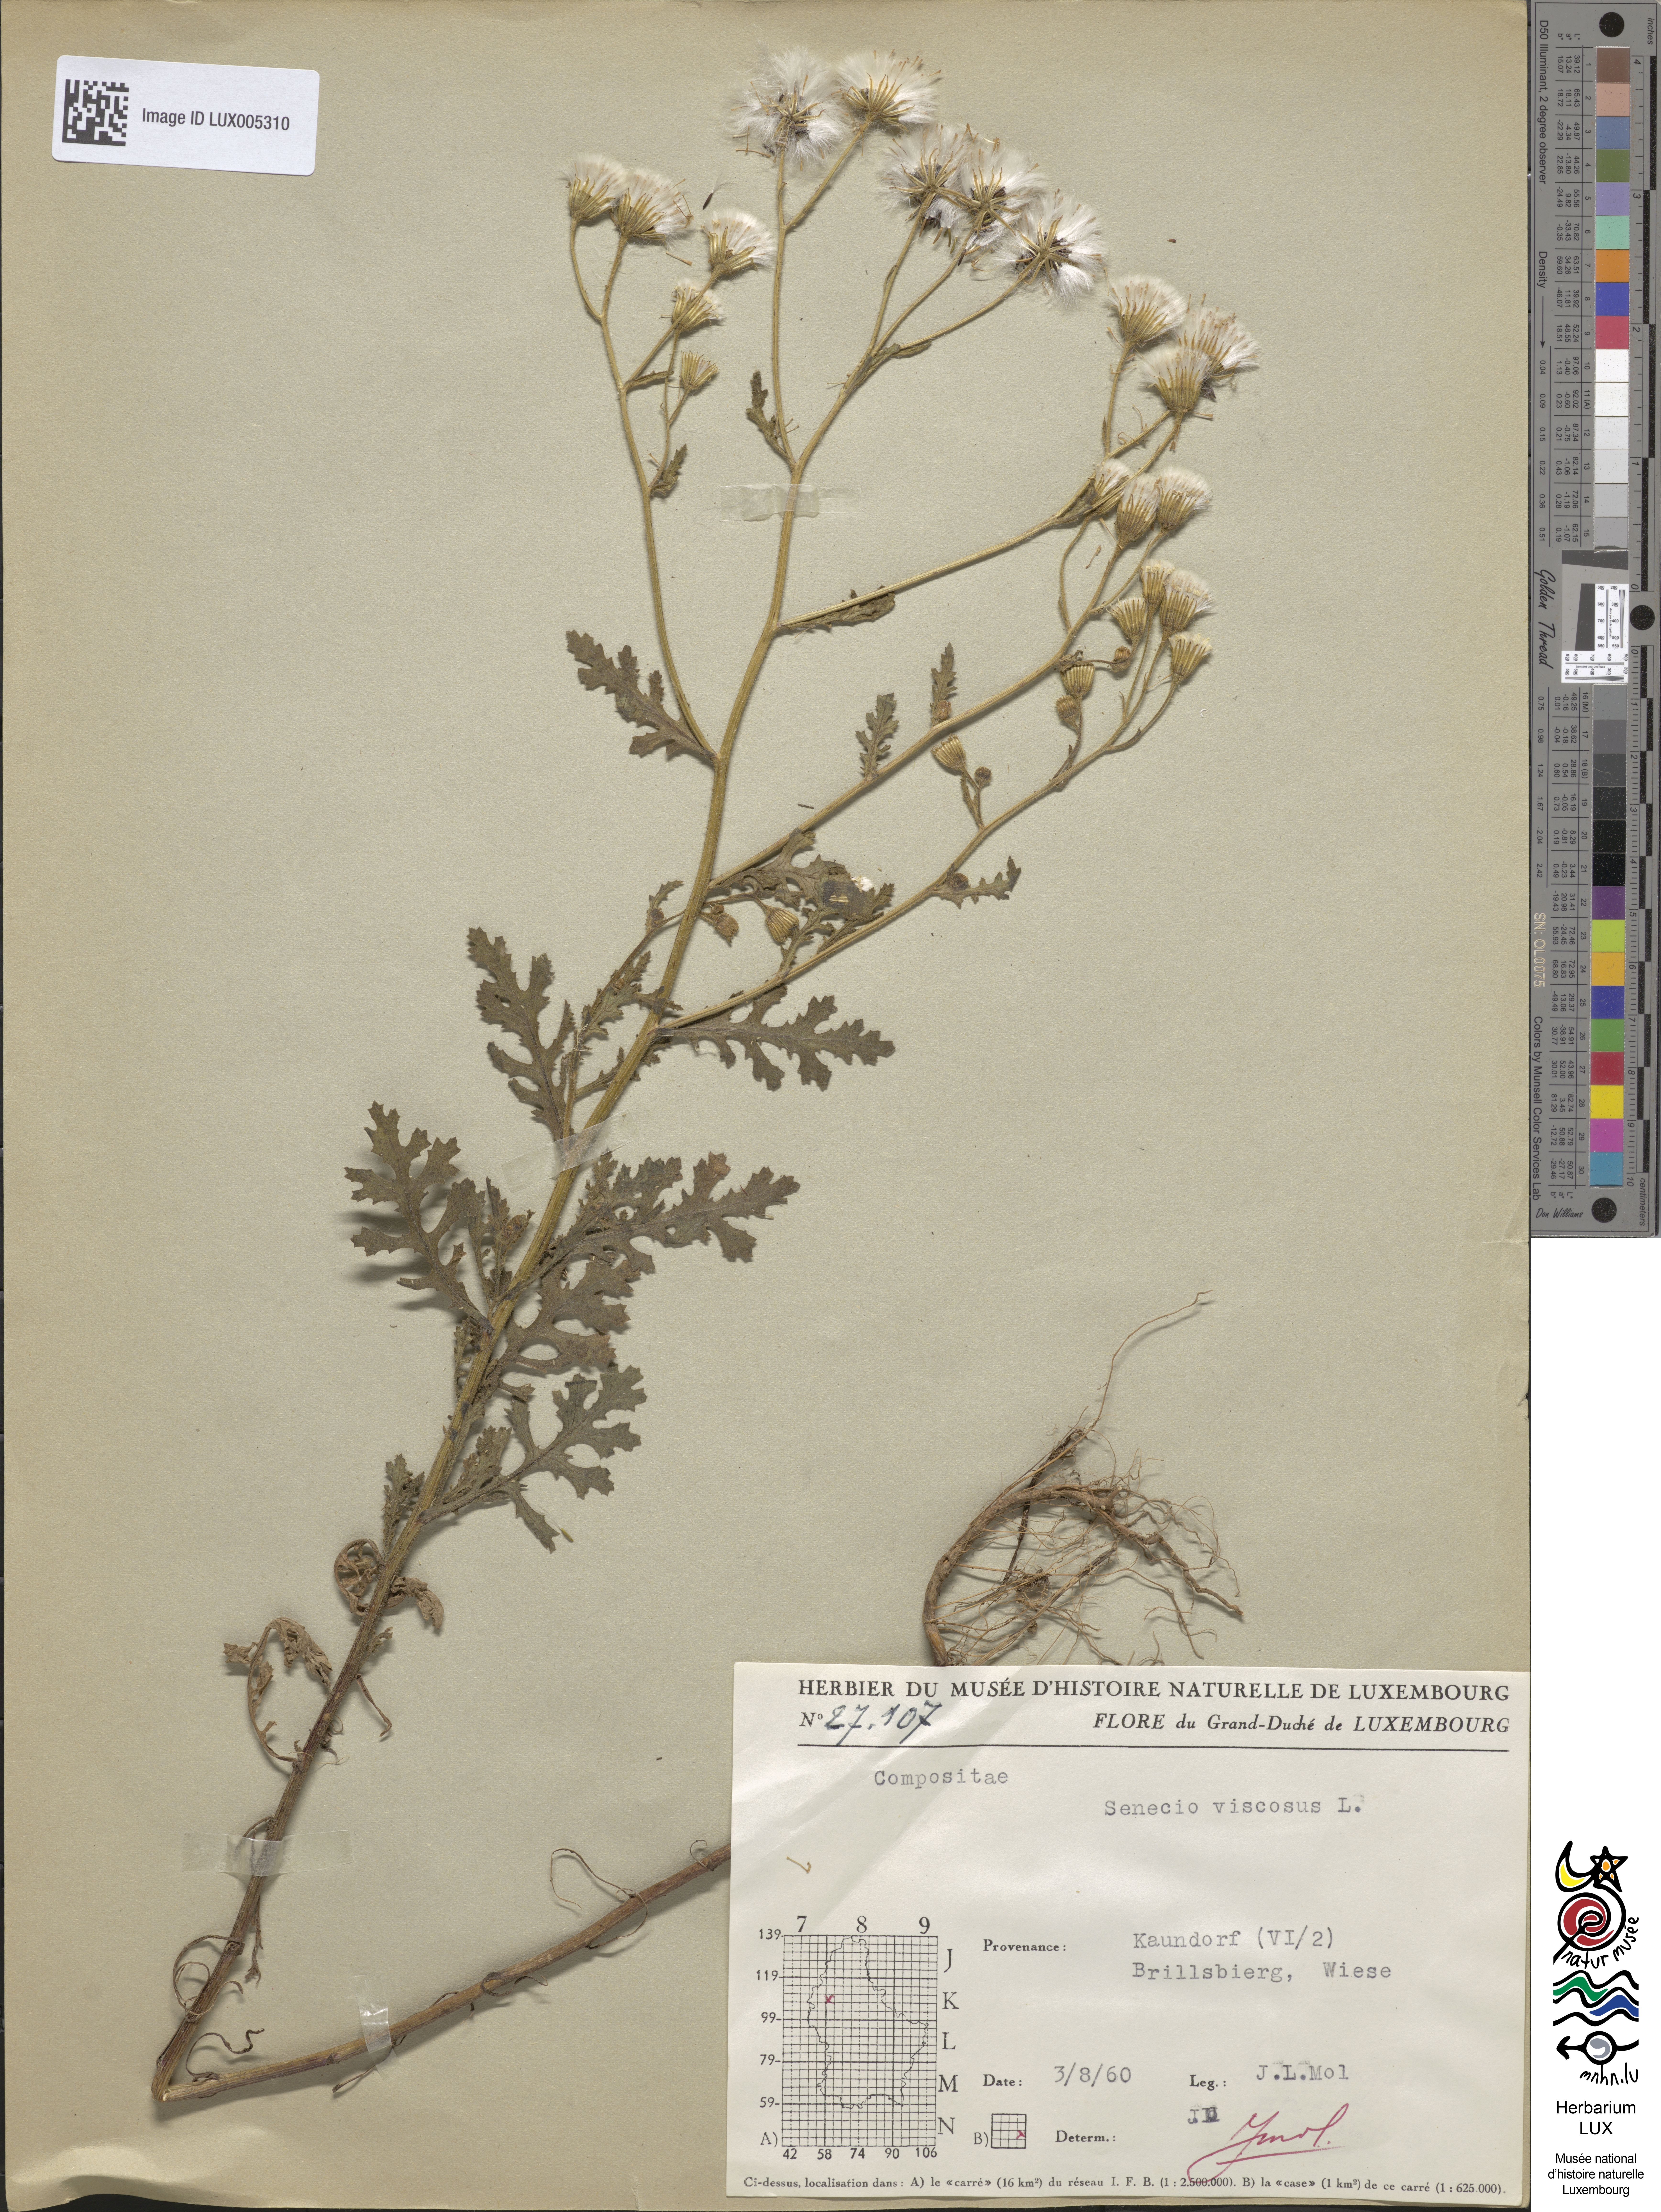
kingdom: Plantae
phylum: Tracheophyta
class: Magnoliopsida
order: Asterales
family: Asteraceae
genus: Senecio
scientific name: Senecio viscosus
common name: Sticky groundsel
